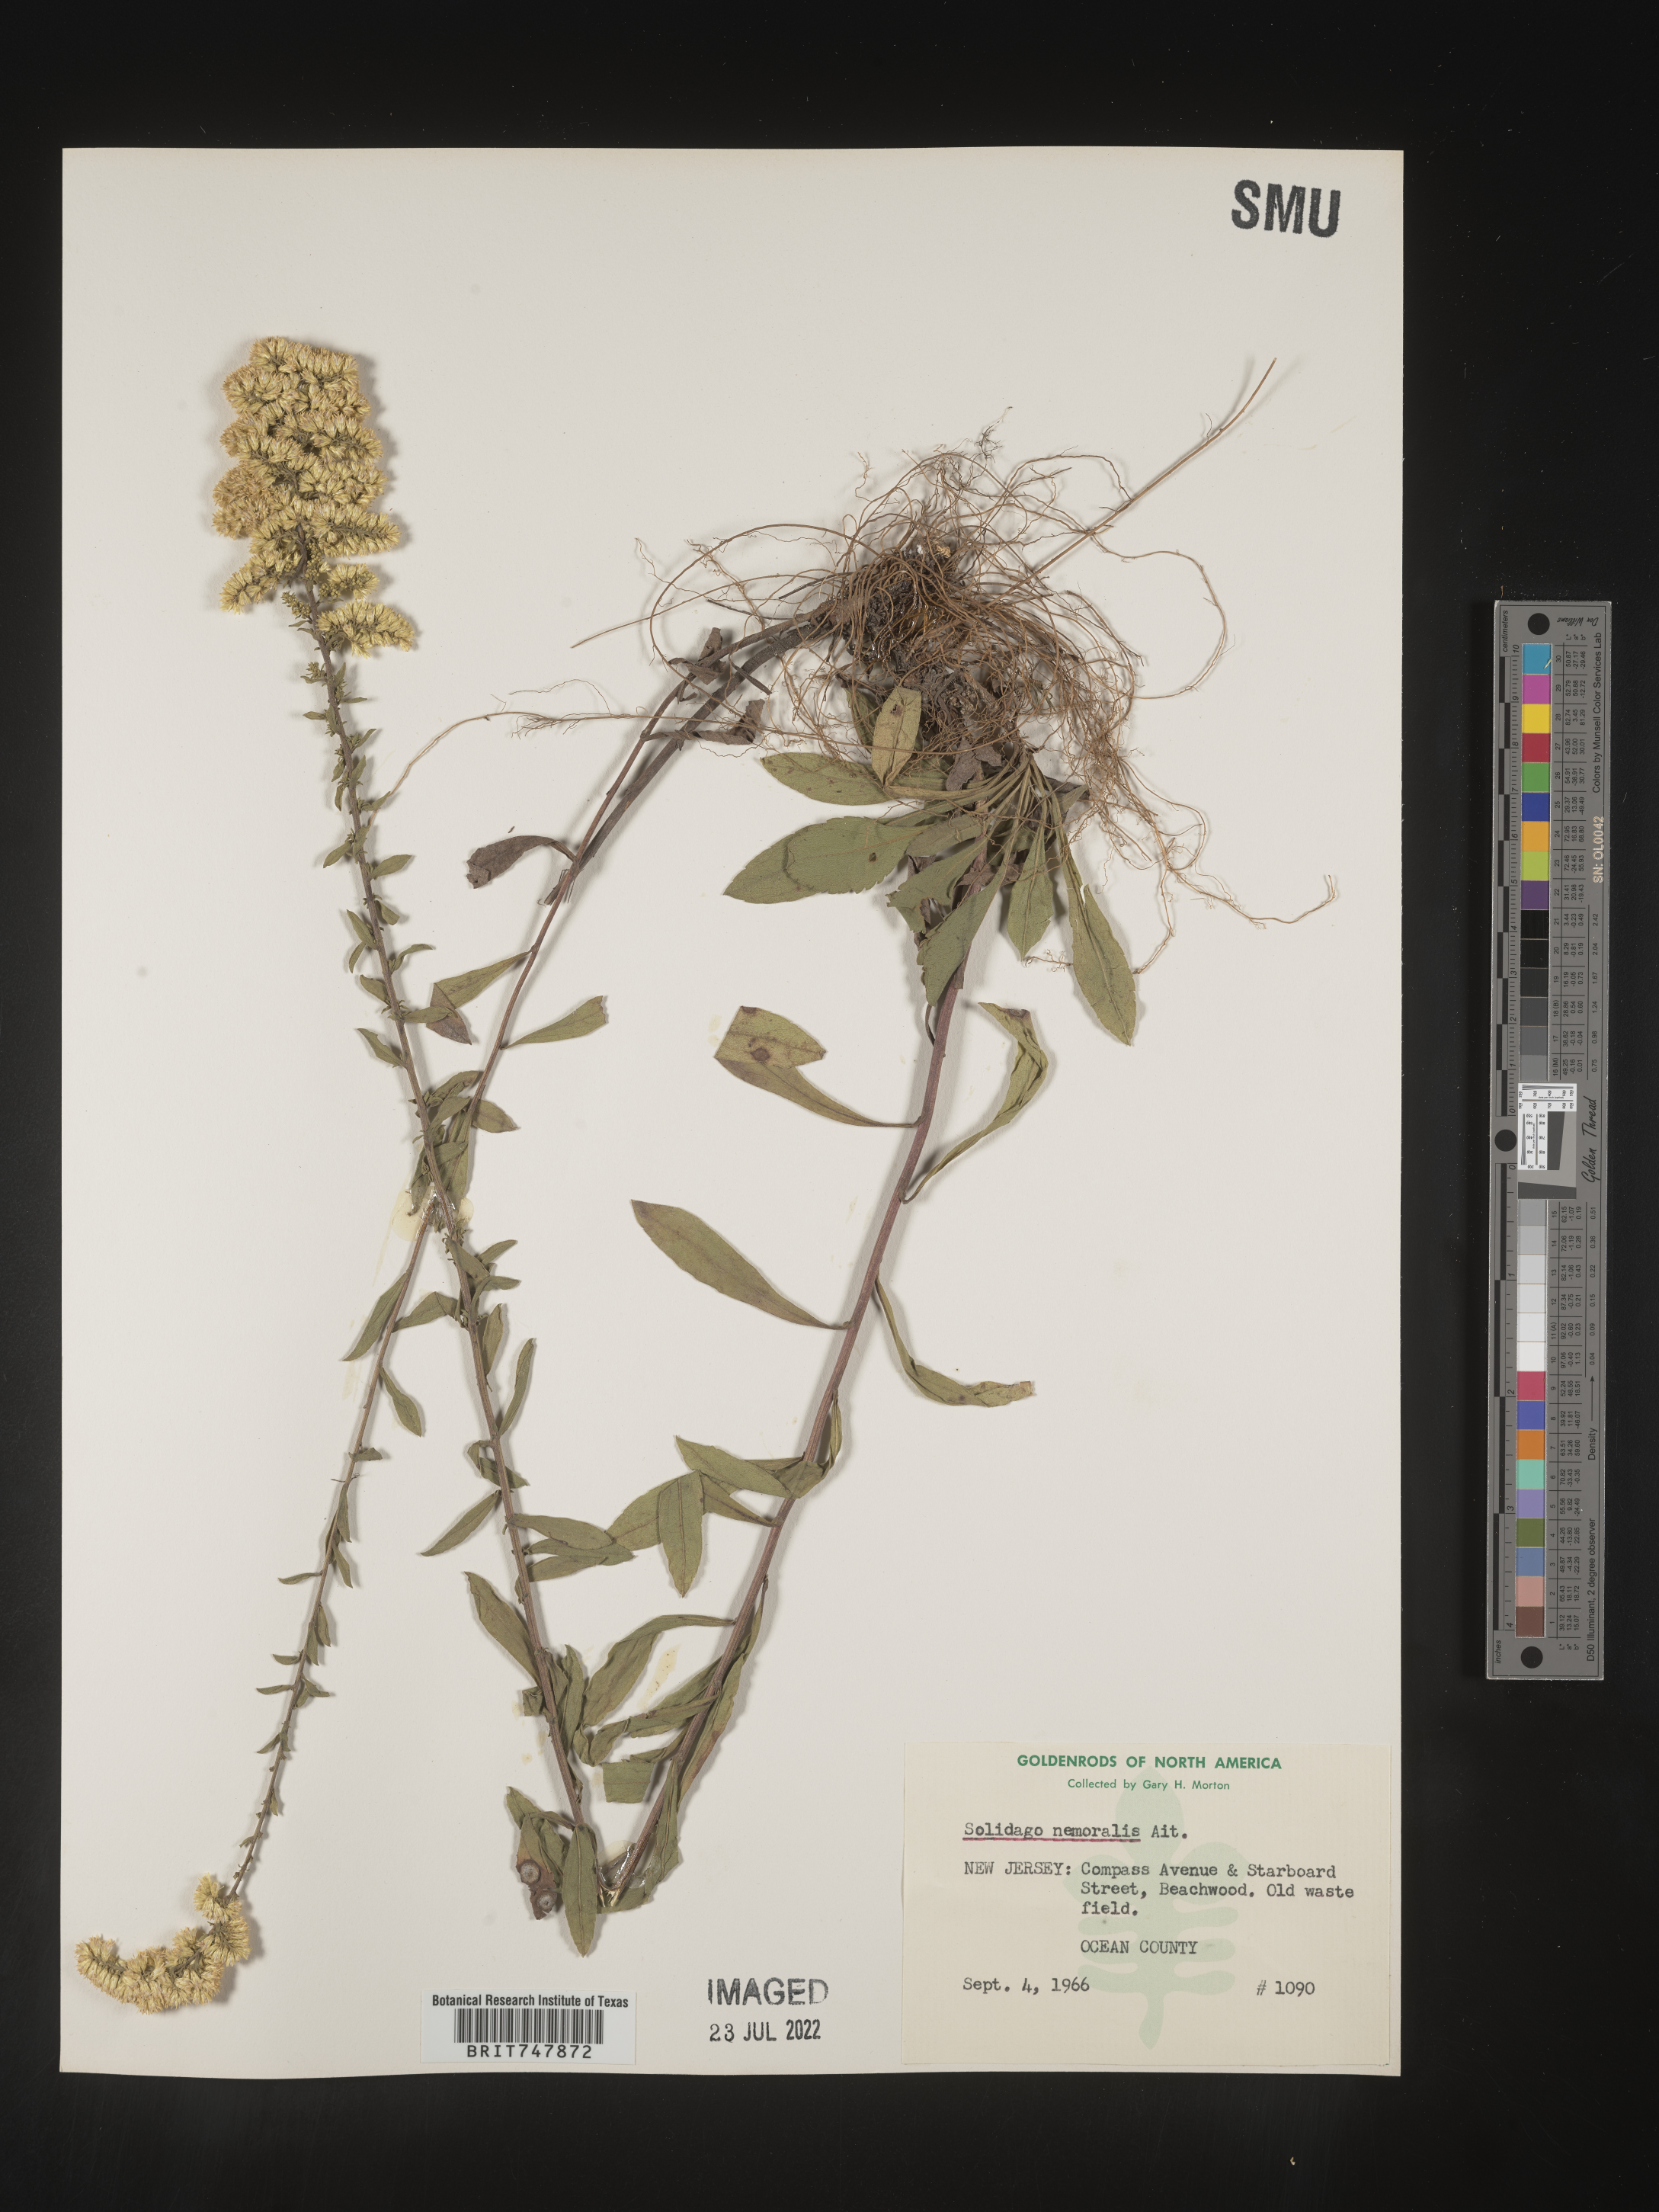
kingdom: Plantae
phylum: Tracheophyta
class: Magnoliopsida
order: Asterales
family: Asteraceae
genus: Solidago
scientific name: Solidago nemoralis
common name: Grey goldenrod
